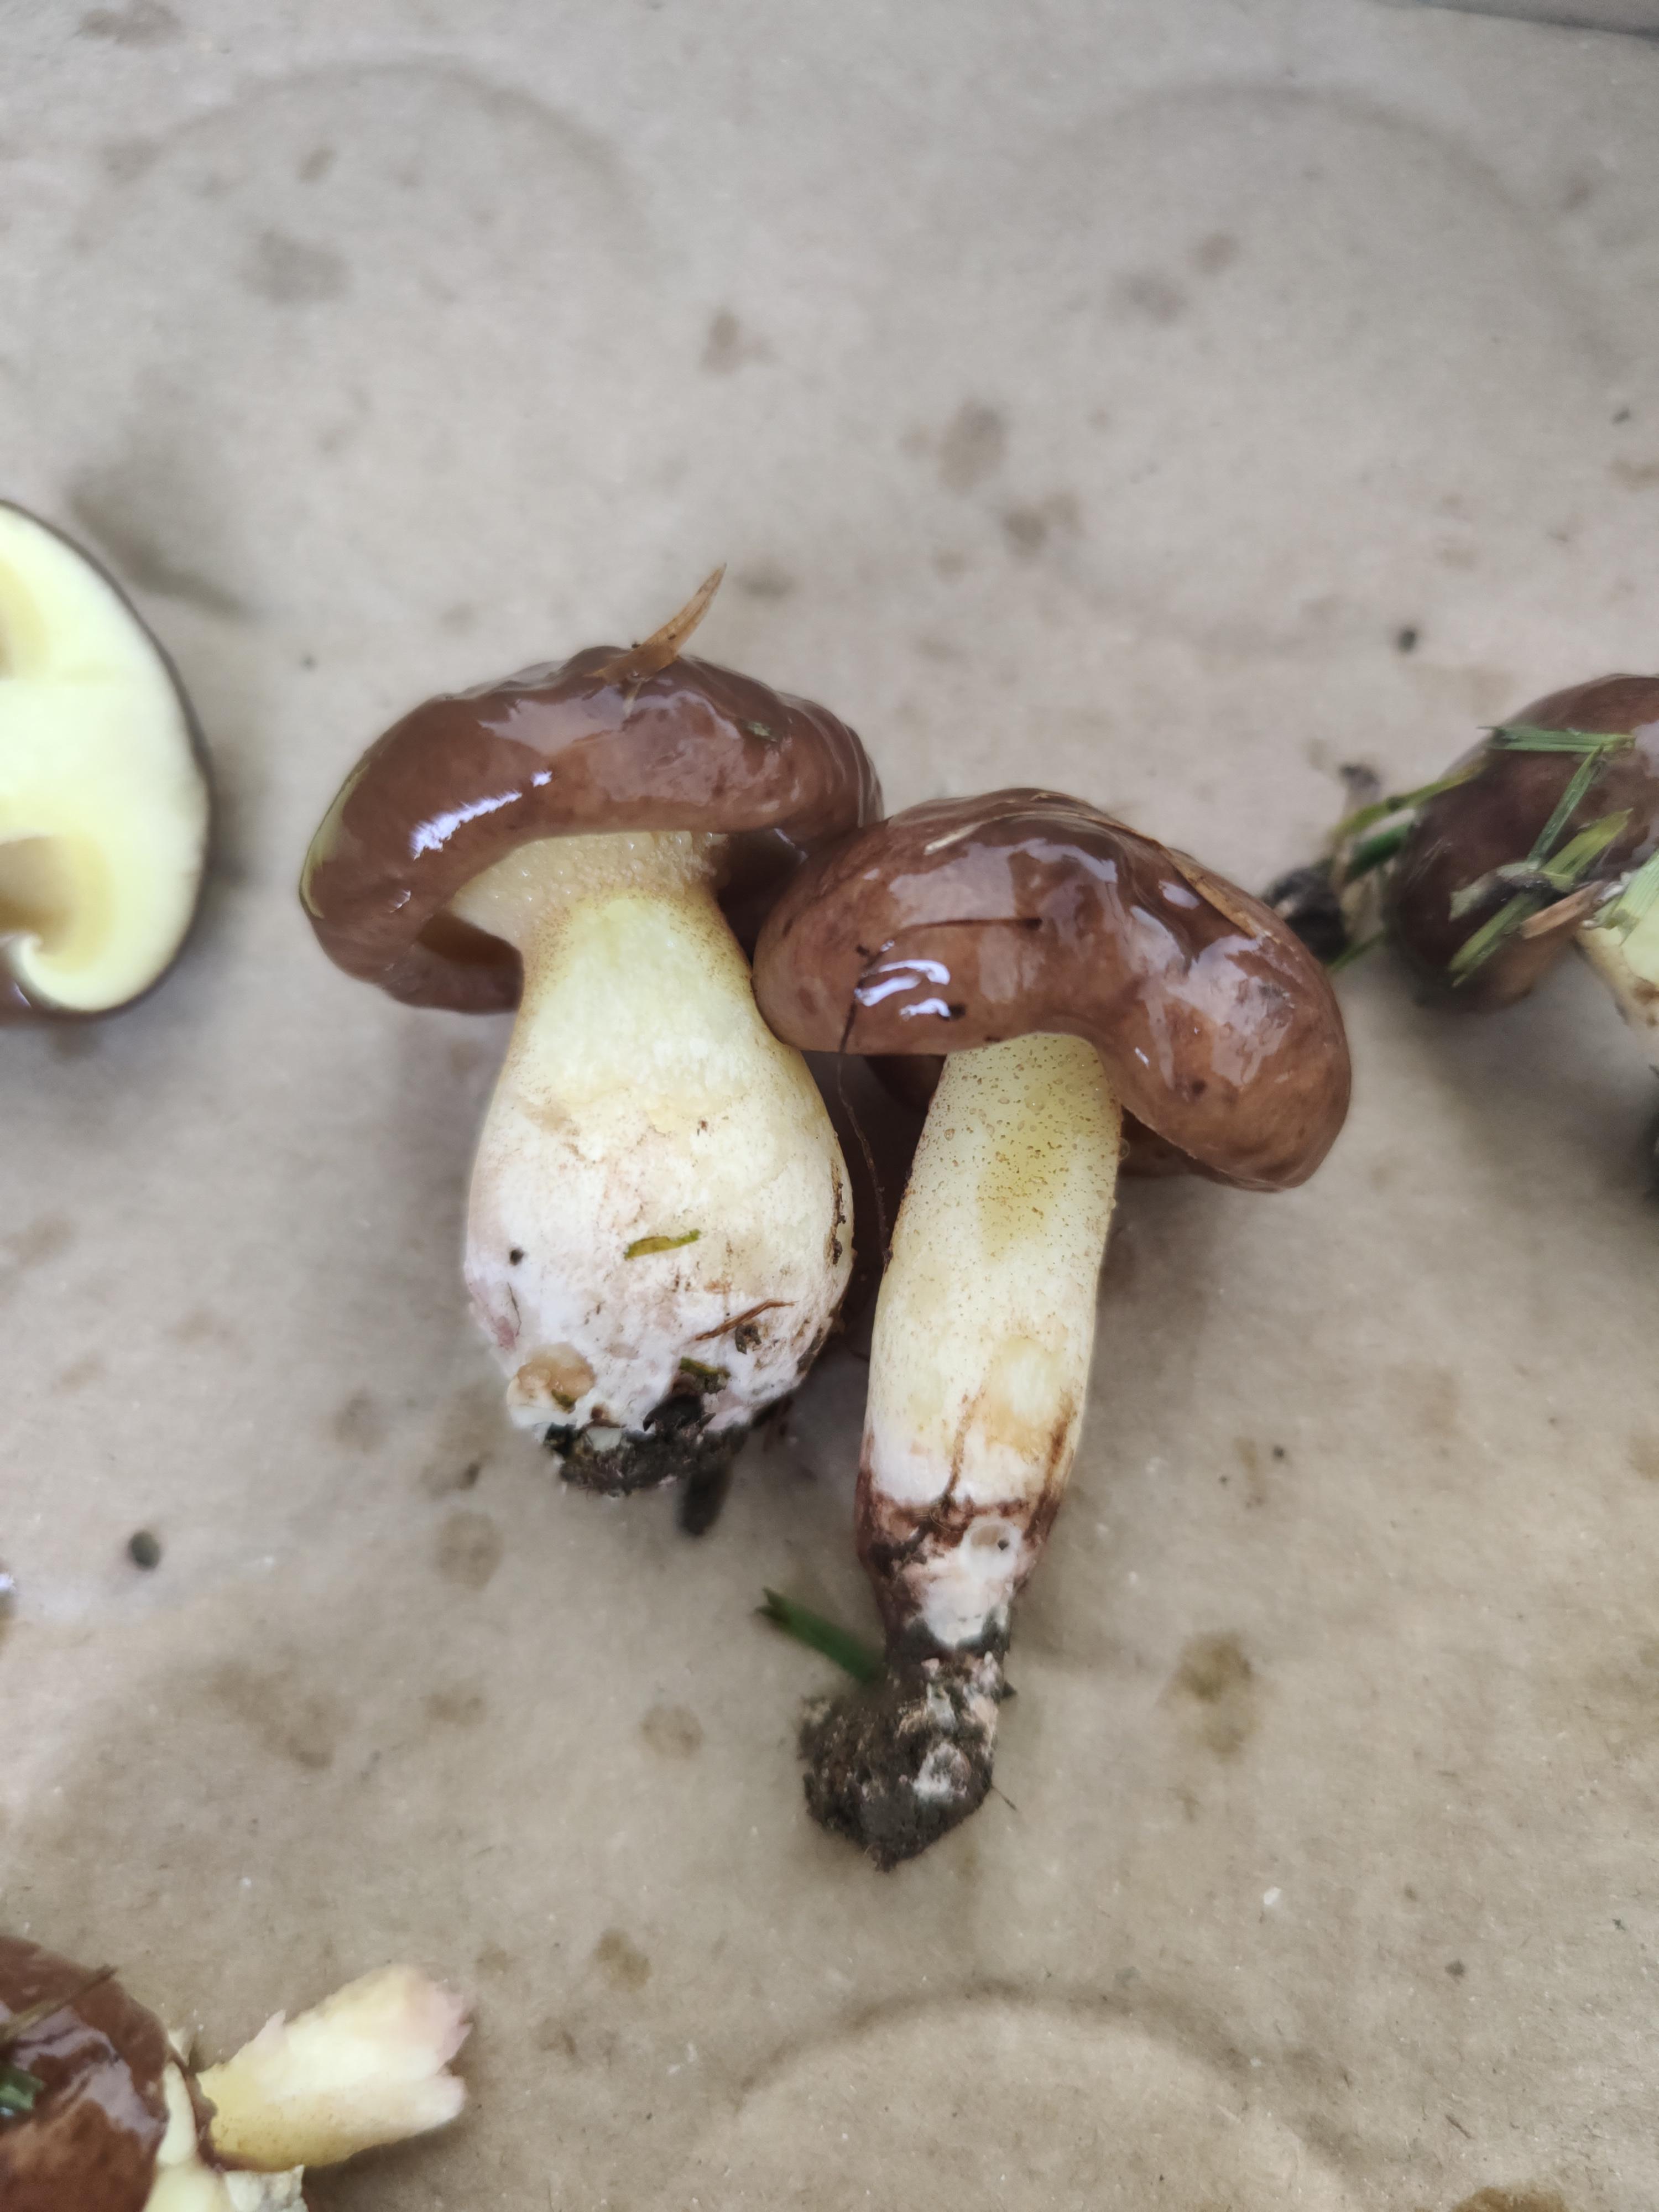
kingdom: Fungi
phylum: Basidiomycota
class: Agaricomycetes
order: Boletales
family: Suillaceae
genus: Suillus
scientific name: Suillus granulatus
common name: kornet slimrørhat
